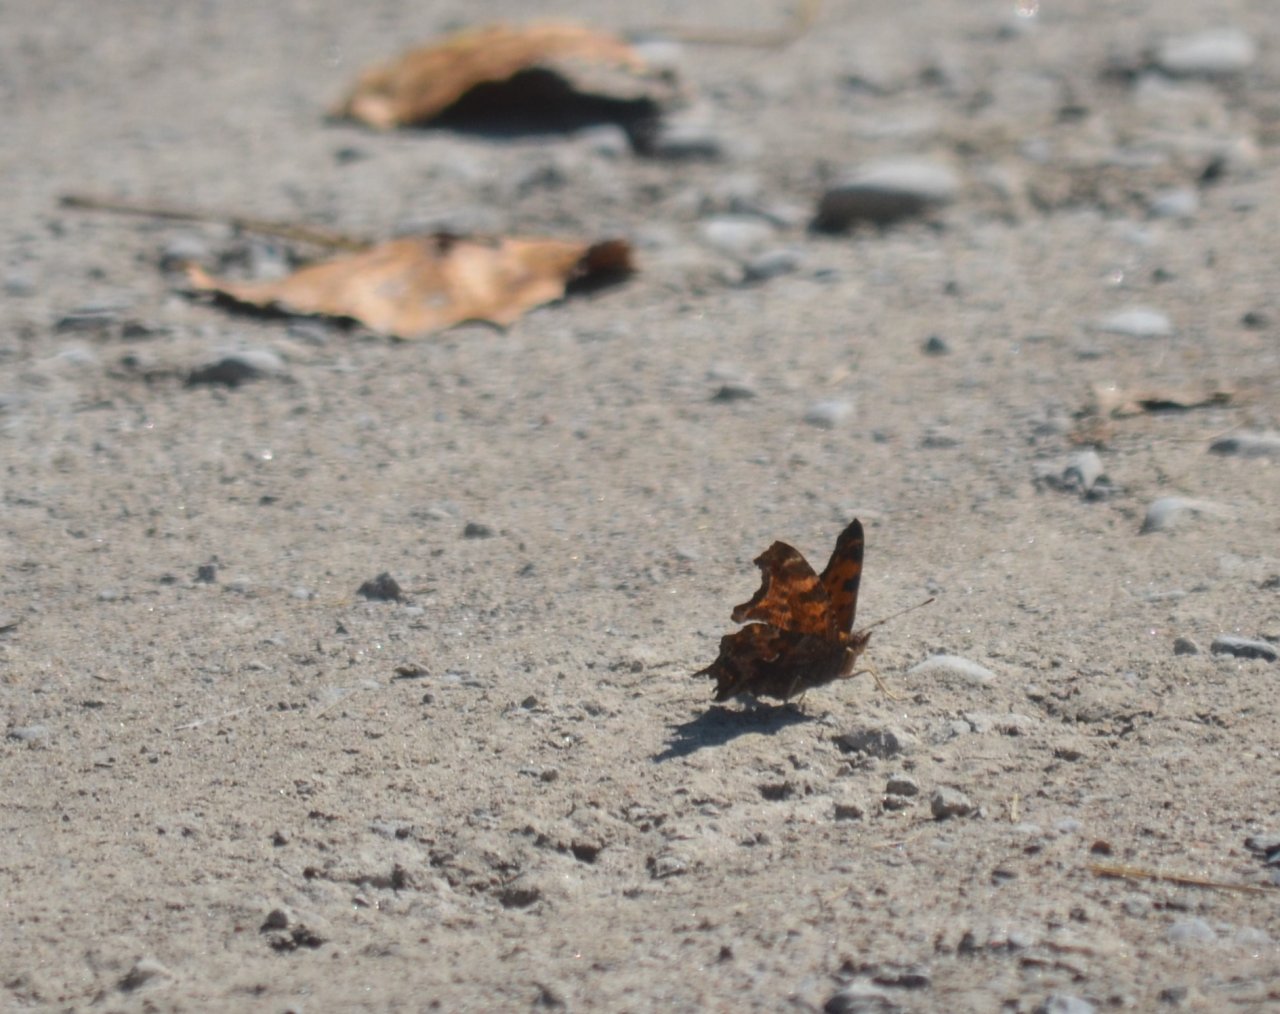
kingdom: Animalia
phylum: Arthropoda
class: Insecta
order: Lepidoptera
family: Nymphalidae
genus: Polygonia
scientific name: Polygonia comma
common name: Eastern Comma
